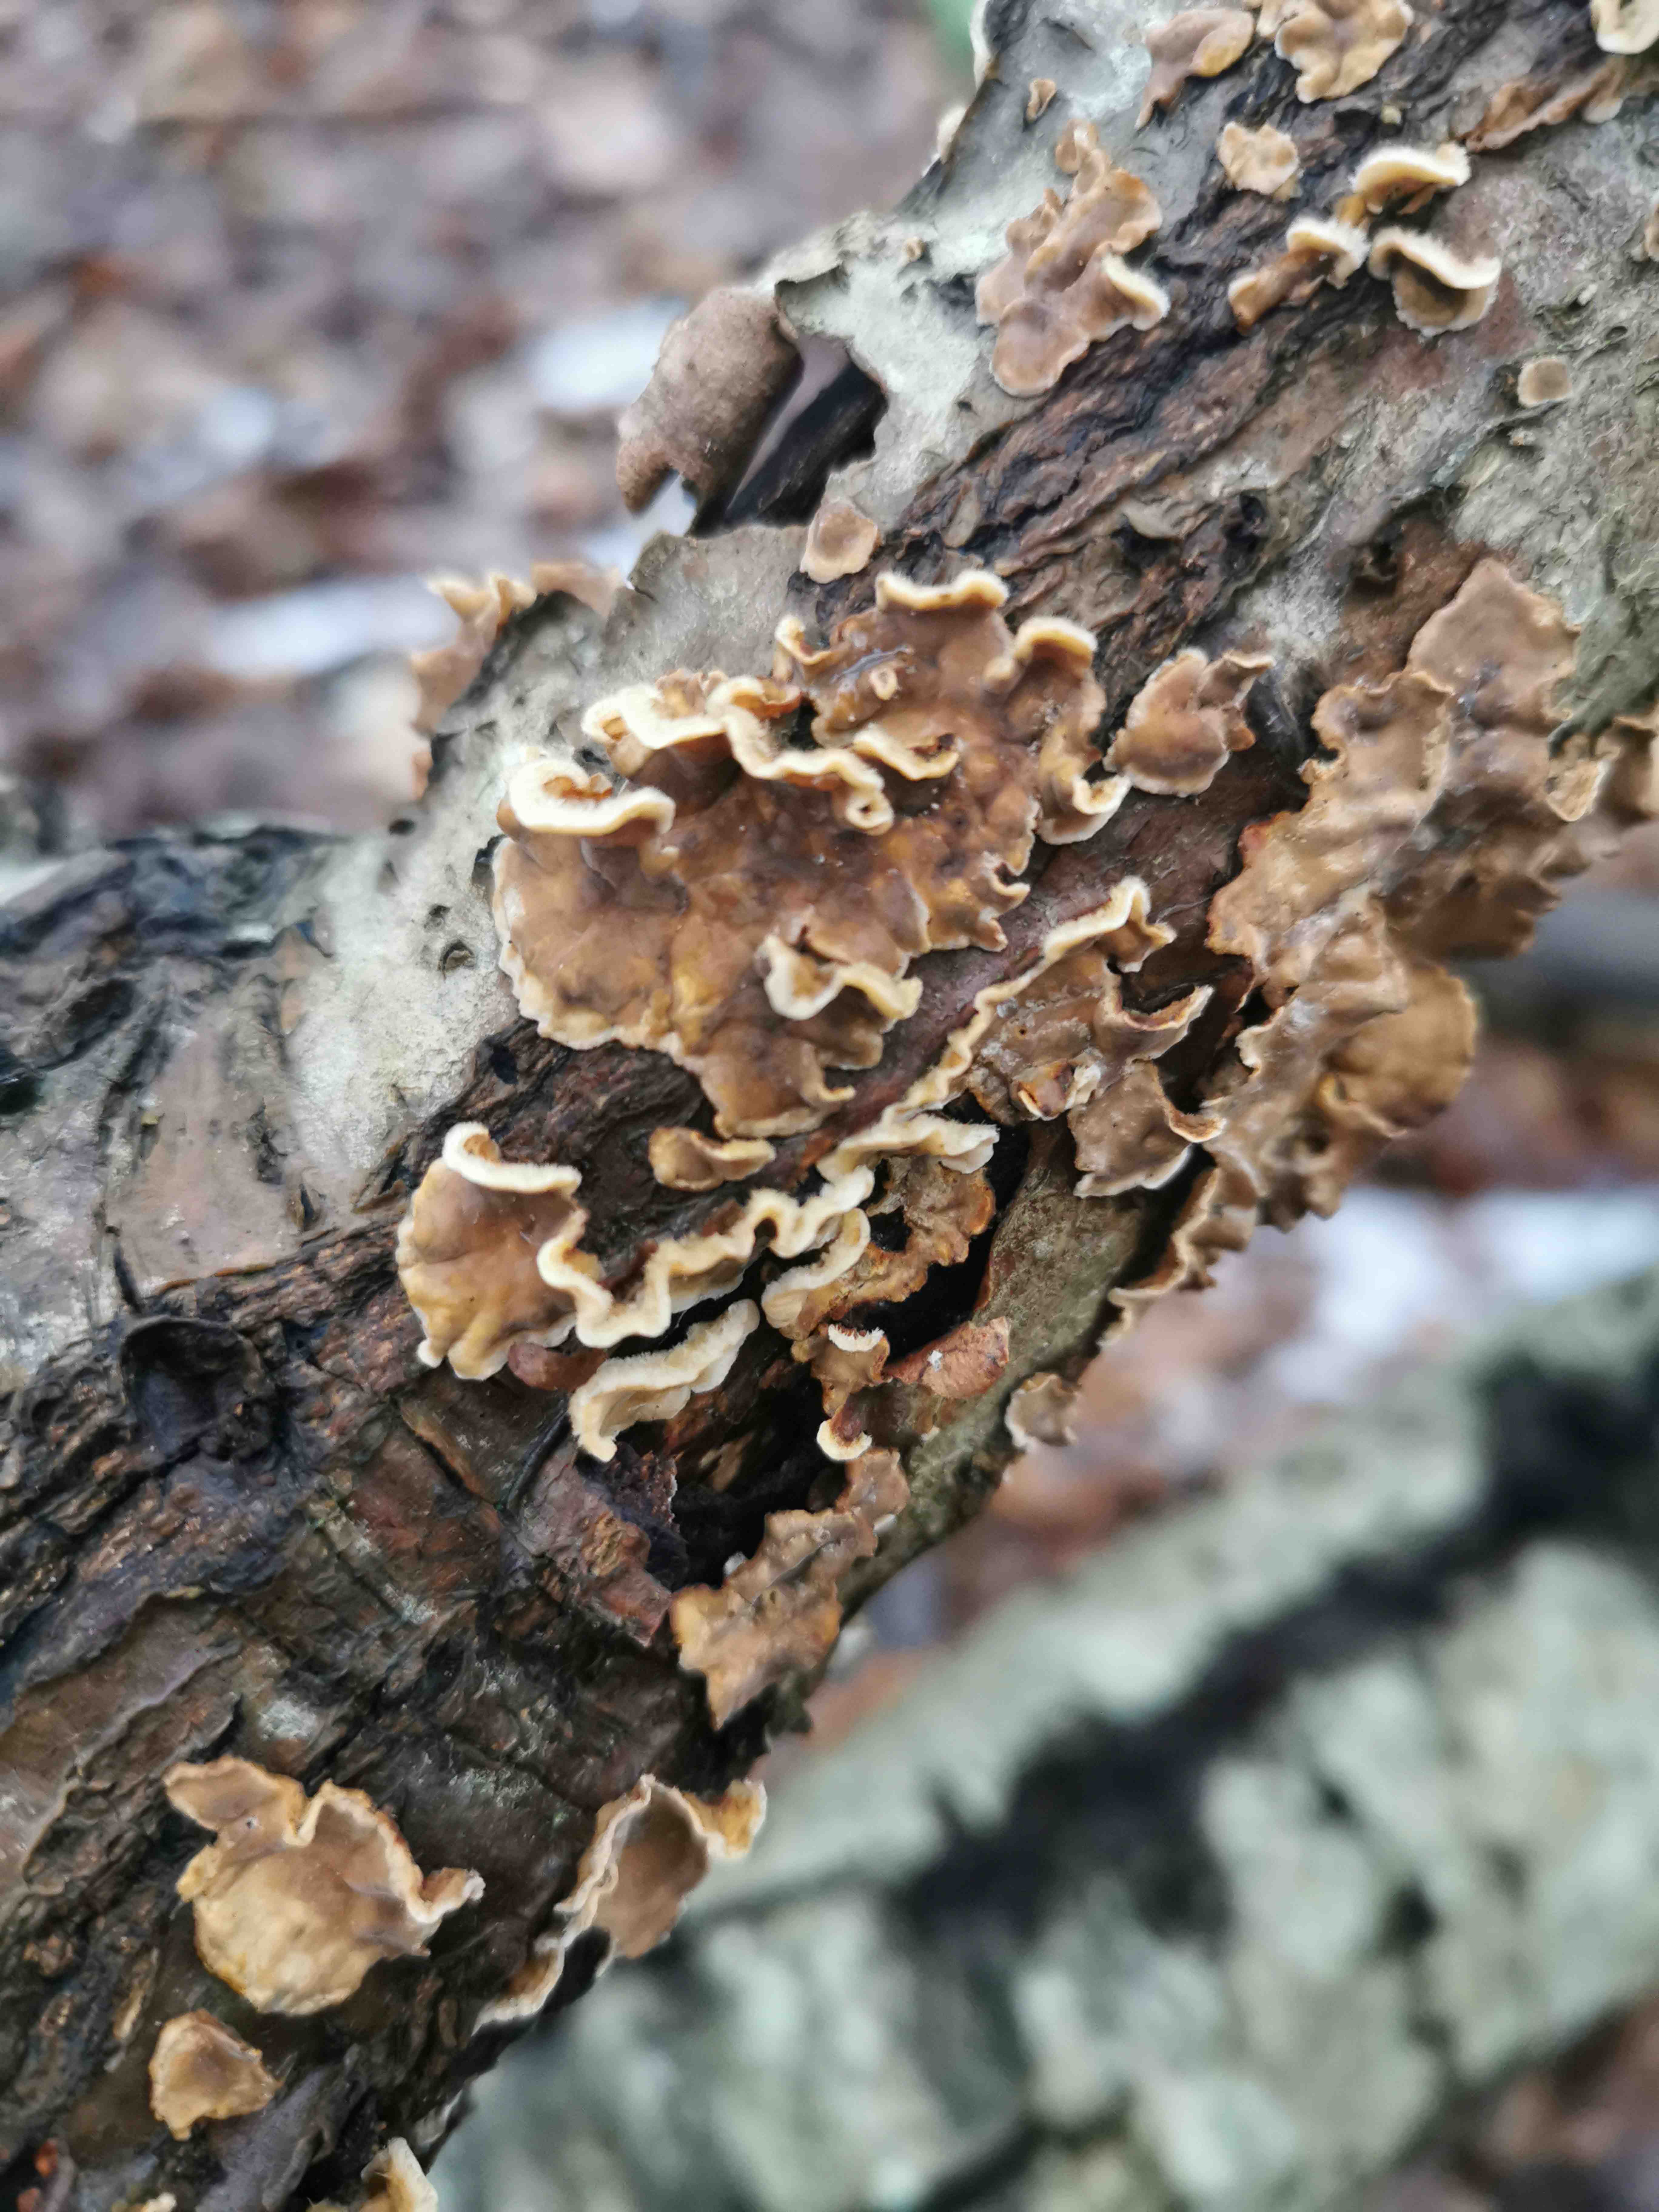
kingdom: Fungi
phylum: Basidiomycota
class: Agaricomycetes
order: Russulales
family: Stereaceae
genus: Stereum
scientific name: Stereum hirsutum
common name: håret lædersvamp
